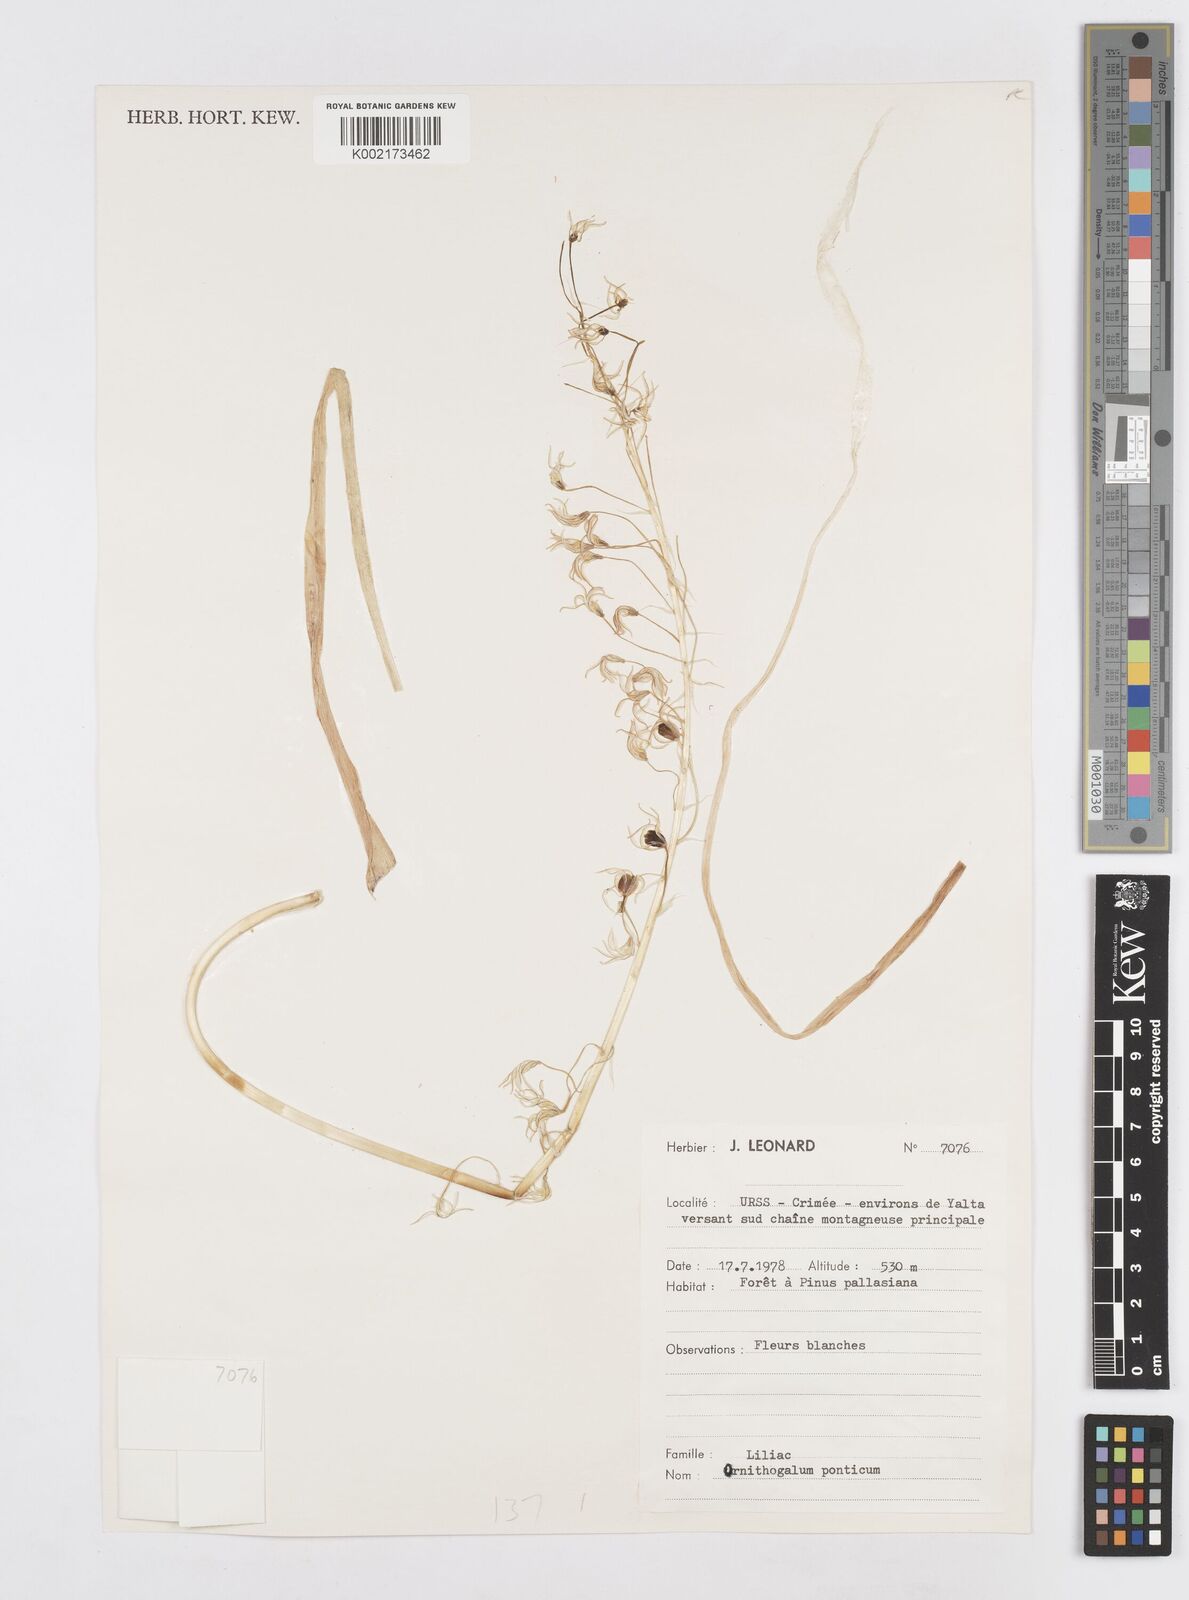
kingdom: Plantae
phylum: Tracheophyta
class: Liliopsida
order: Asparagales
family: Asparagaceae
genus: Ornithogalum
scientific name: Ornithogalum ponticum
